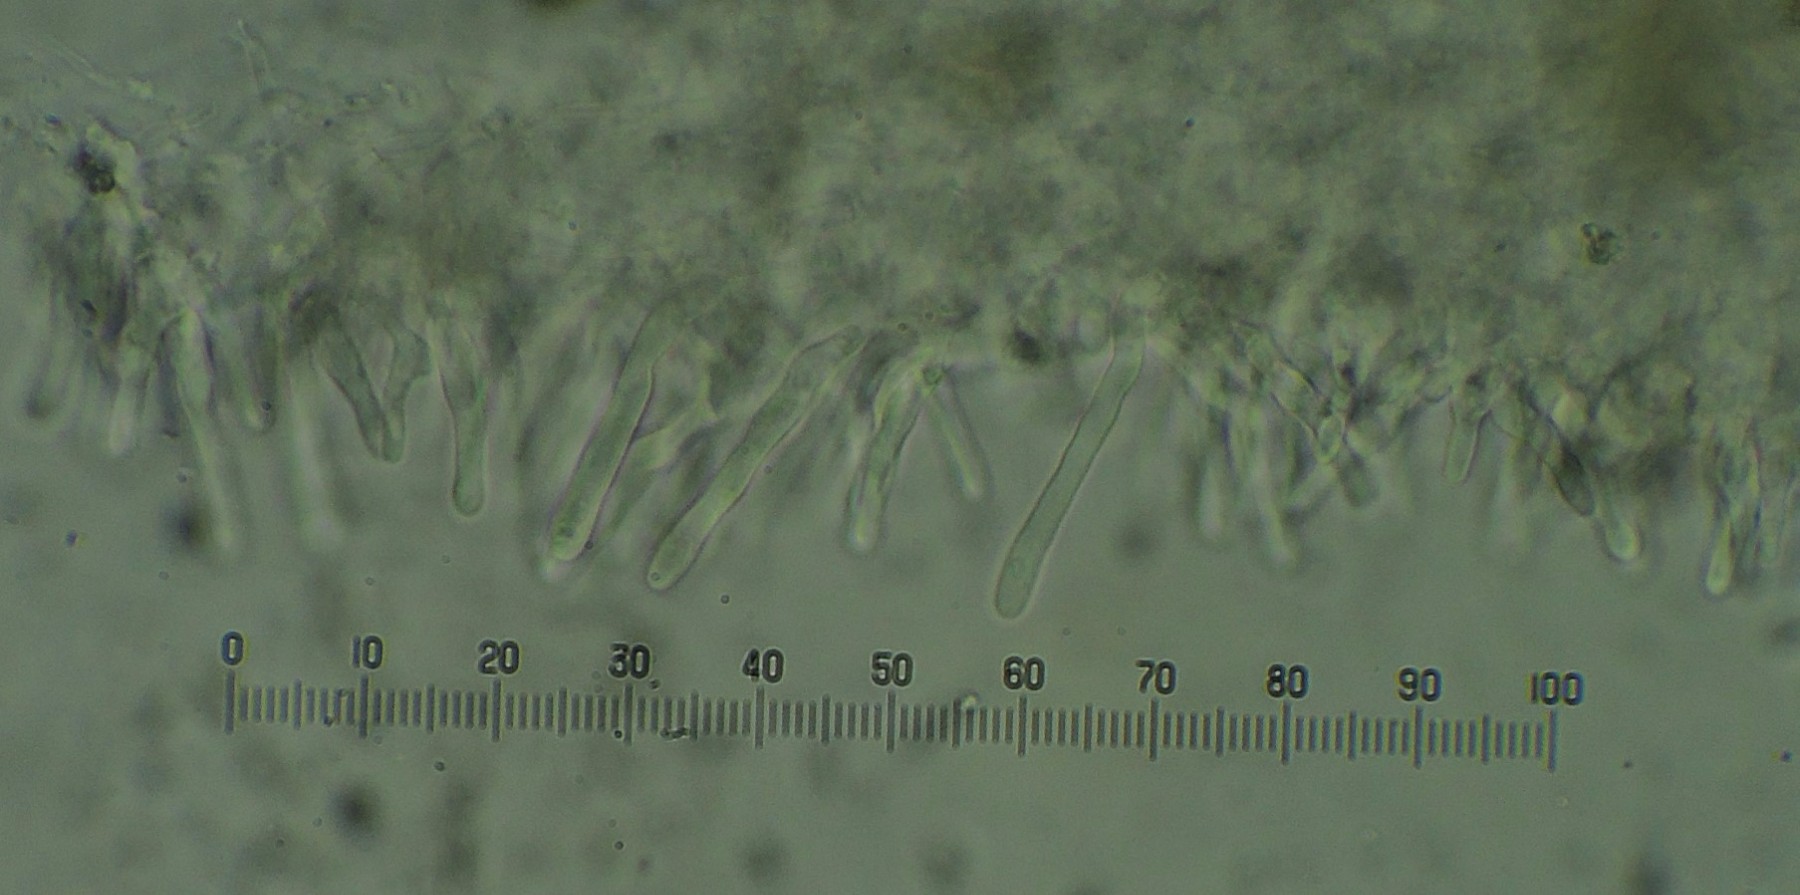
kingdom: Fungi
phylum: Basidiomycota
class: Agaricomycetes
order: Agaricales
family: Strophariaceae
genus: Pholiota
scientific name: Pholiota conissans
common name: pile-skælhat
